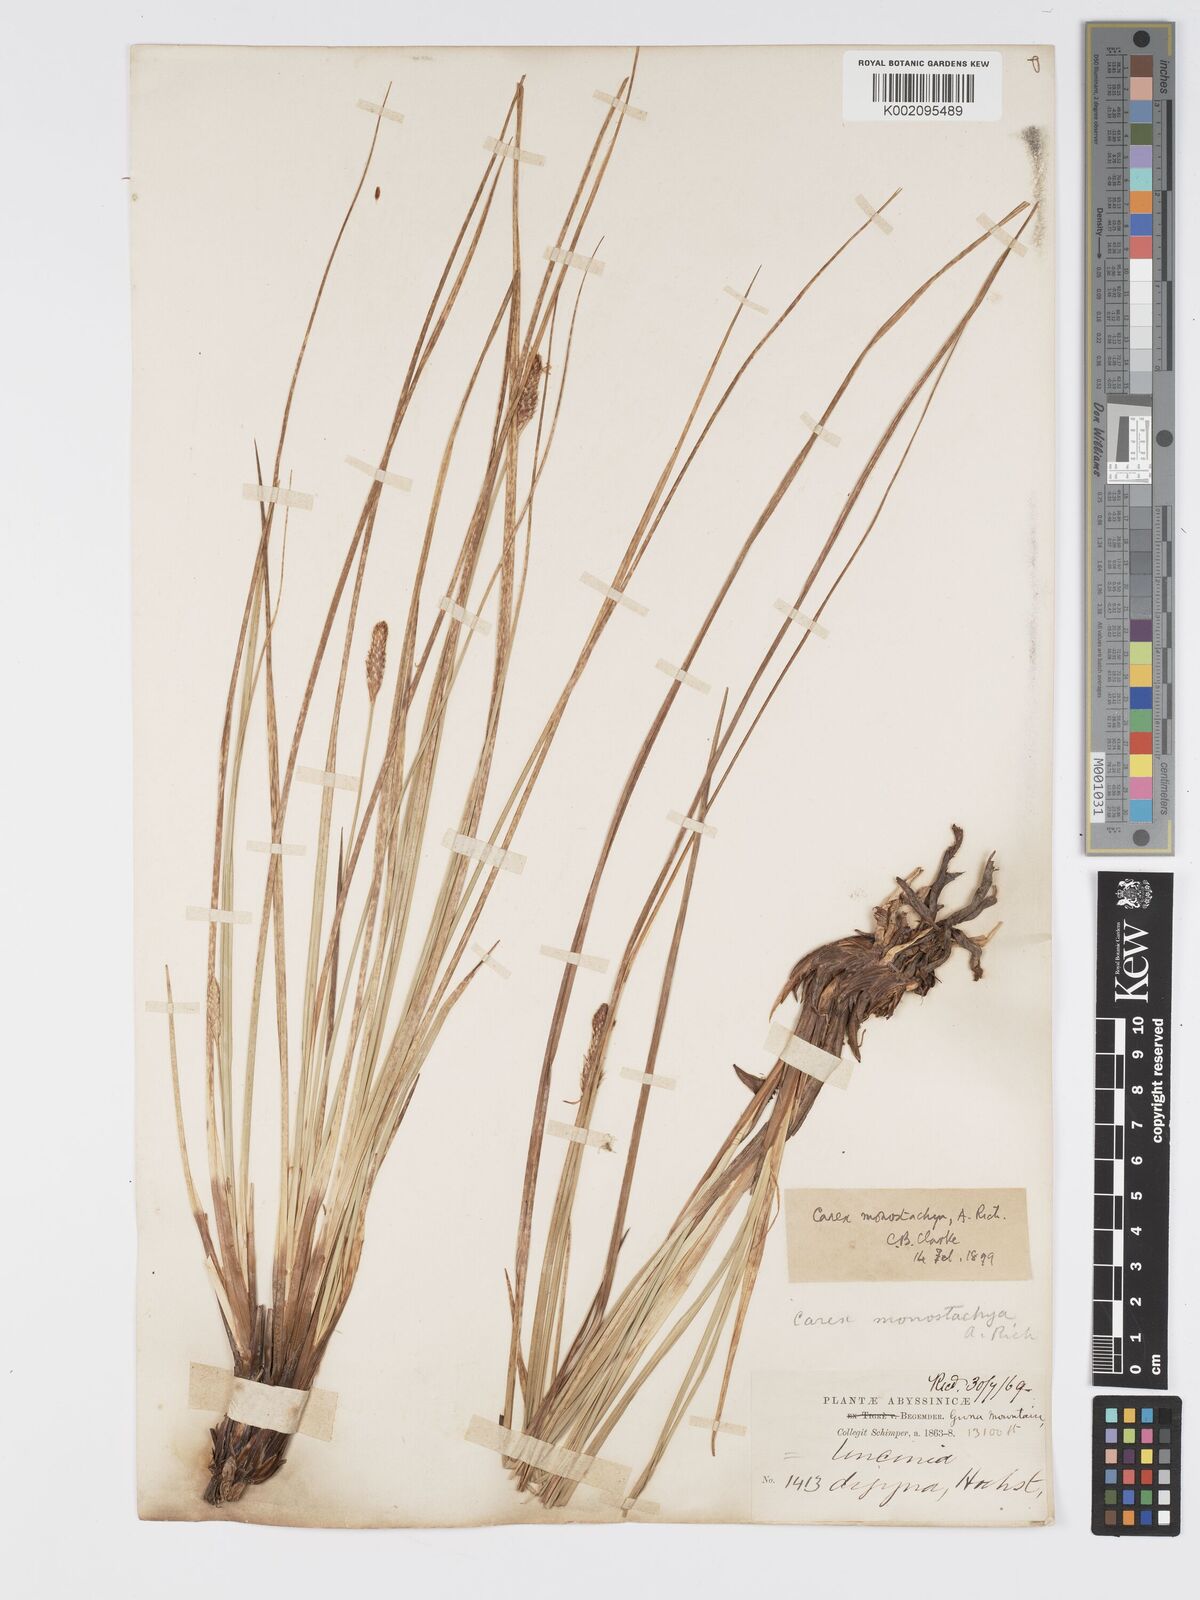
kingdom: Plantae
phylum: Tracheophyta
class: Liliopsida
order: Poales
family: Cyperaceae
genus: Carex
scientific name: Carex monostachya
